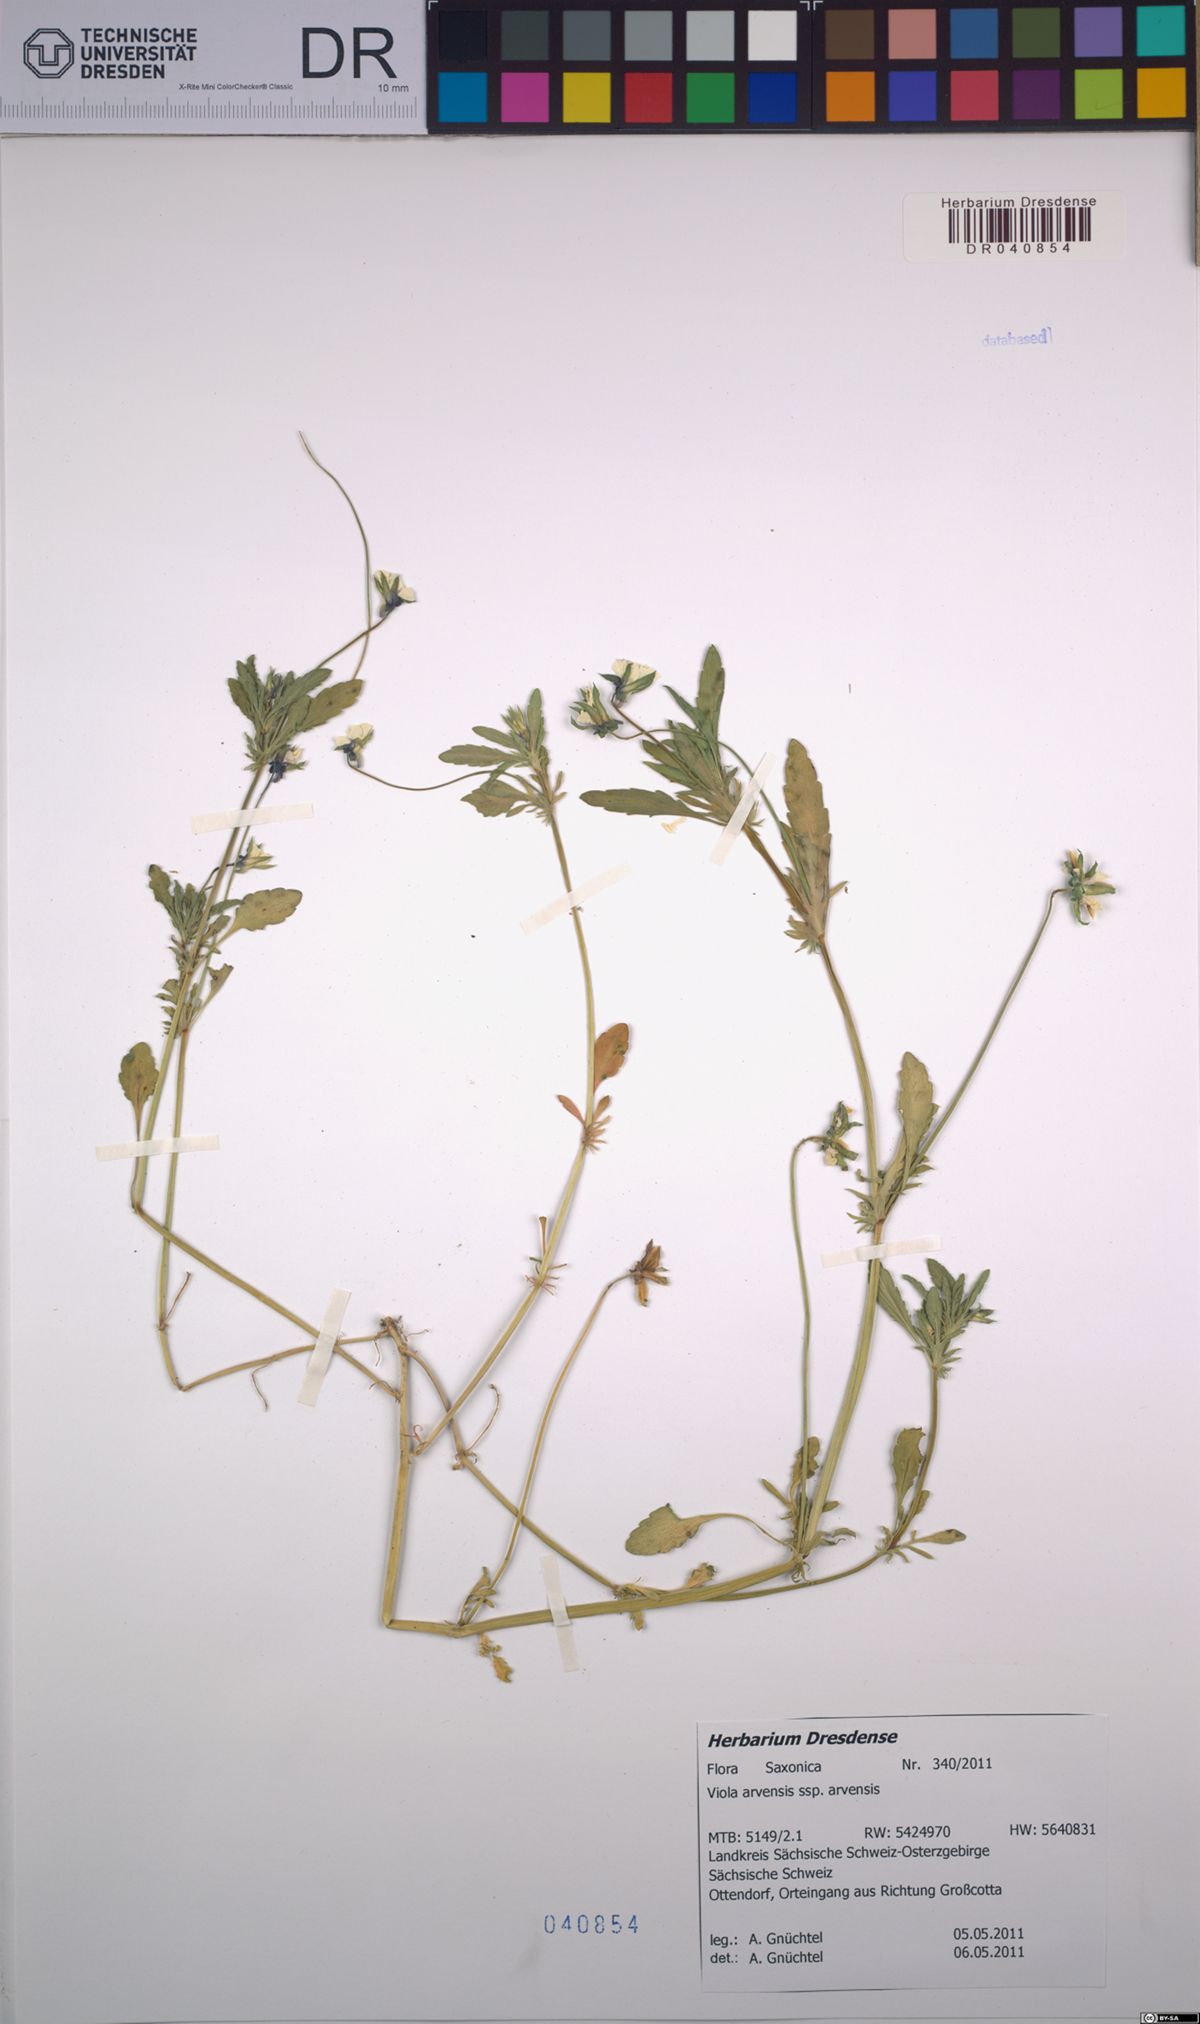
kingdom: Plantae
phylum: Tracheophyta
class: Magnoliopsida
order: Malpighiales
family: Violaceae
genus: Viola
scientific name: Viola arvensis
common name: Field pansy
